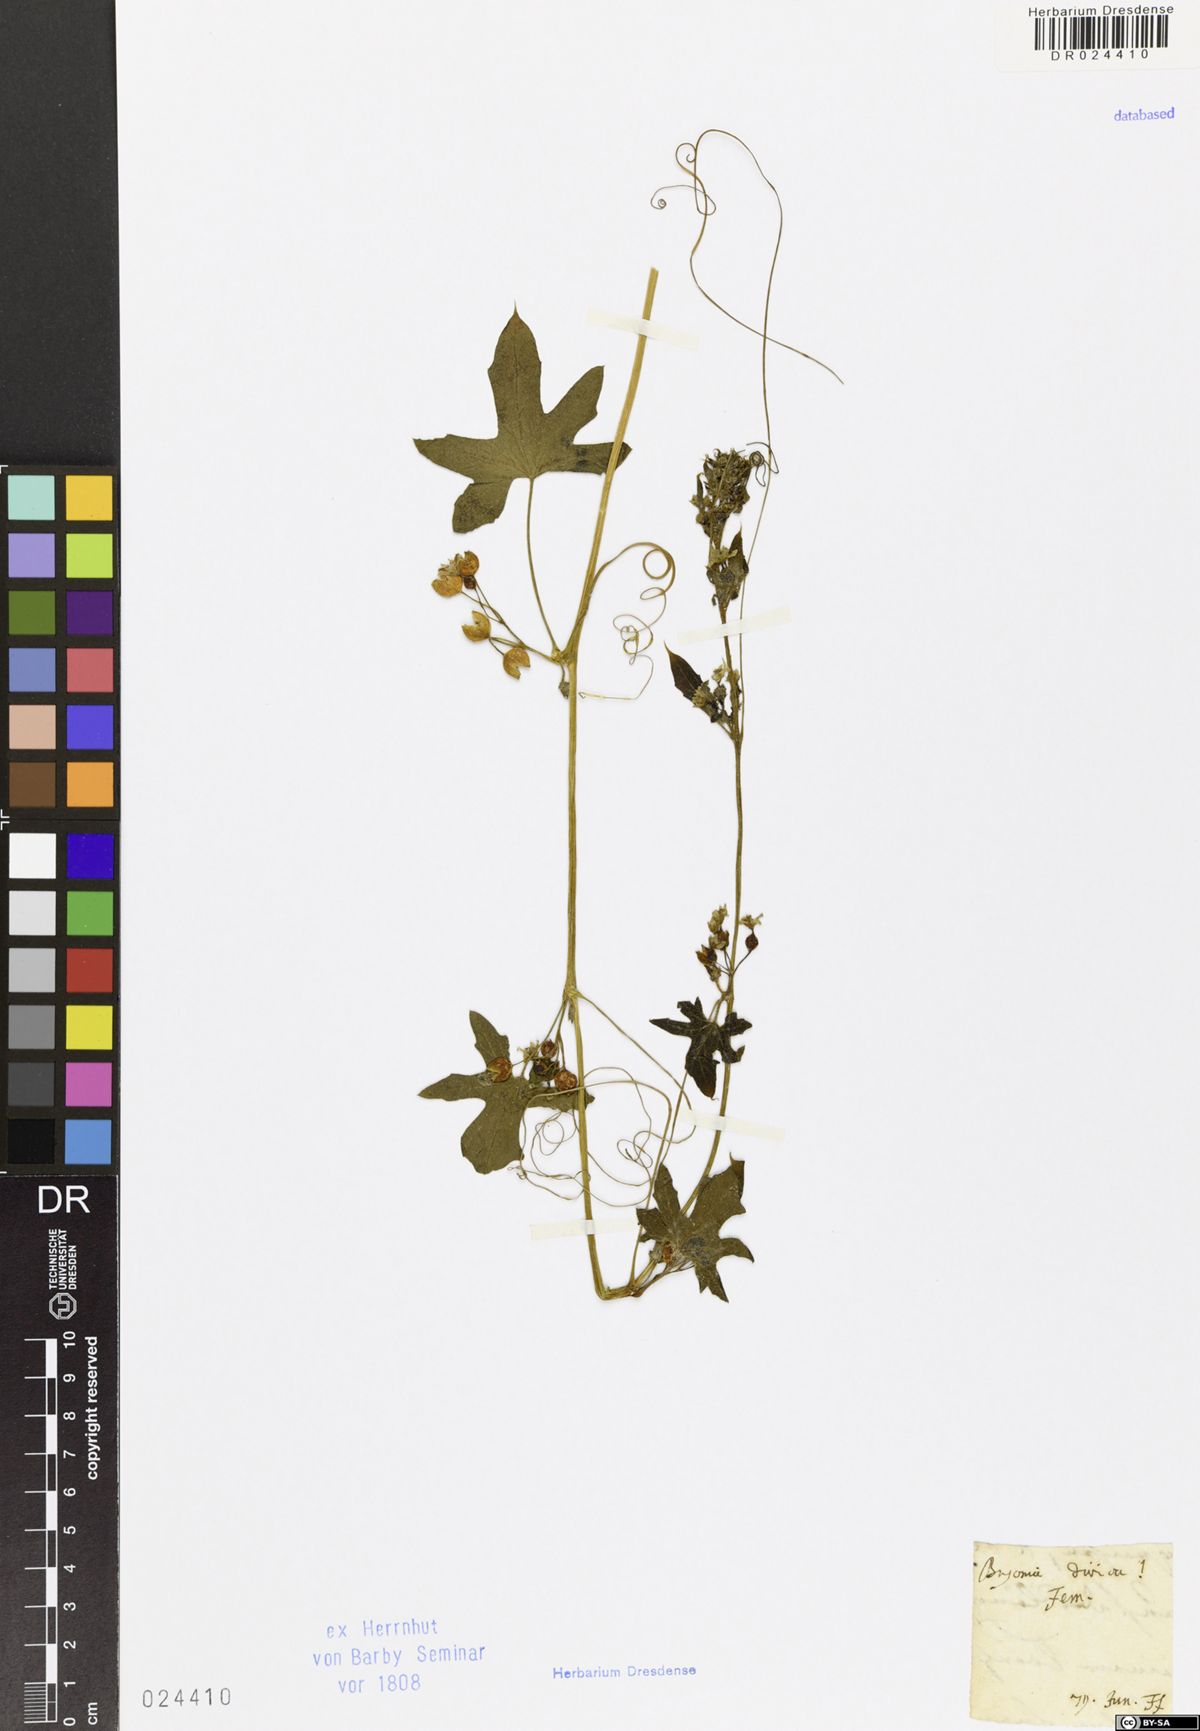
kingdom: Plantae
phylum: Tracheophyta
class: Magnoliopsida
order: Cucurbitales
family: Cucurbitaceae
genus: Bryonia
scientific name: Bryonia dioica
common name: White bryony
